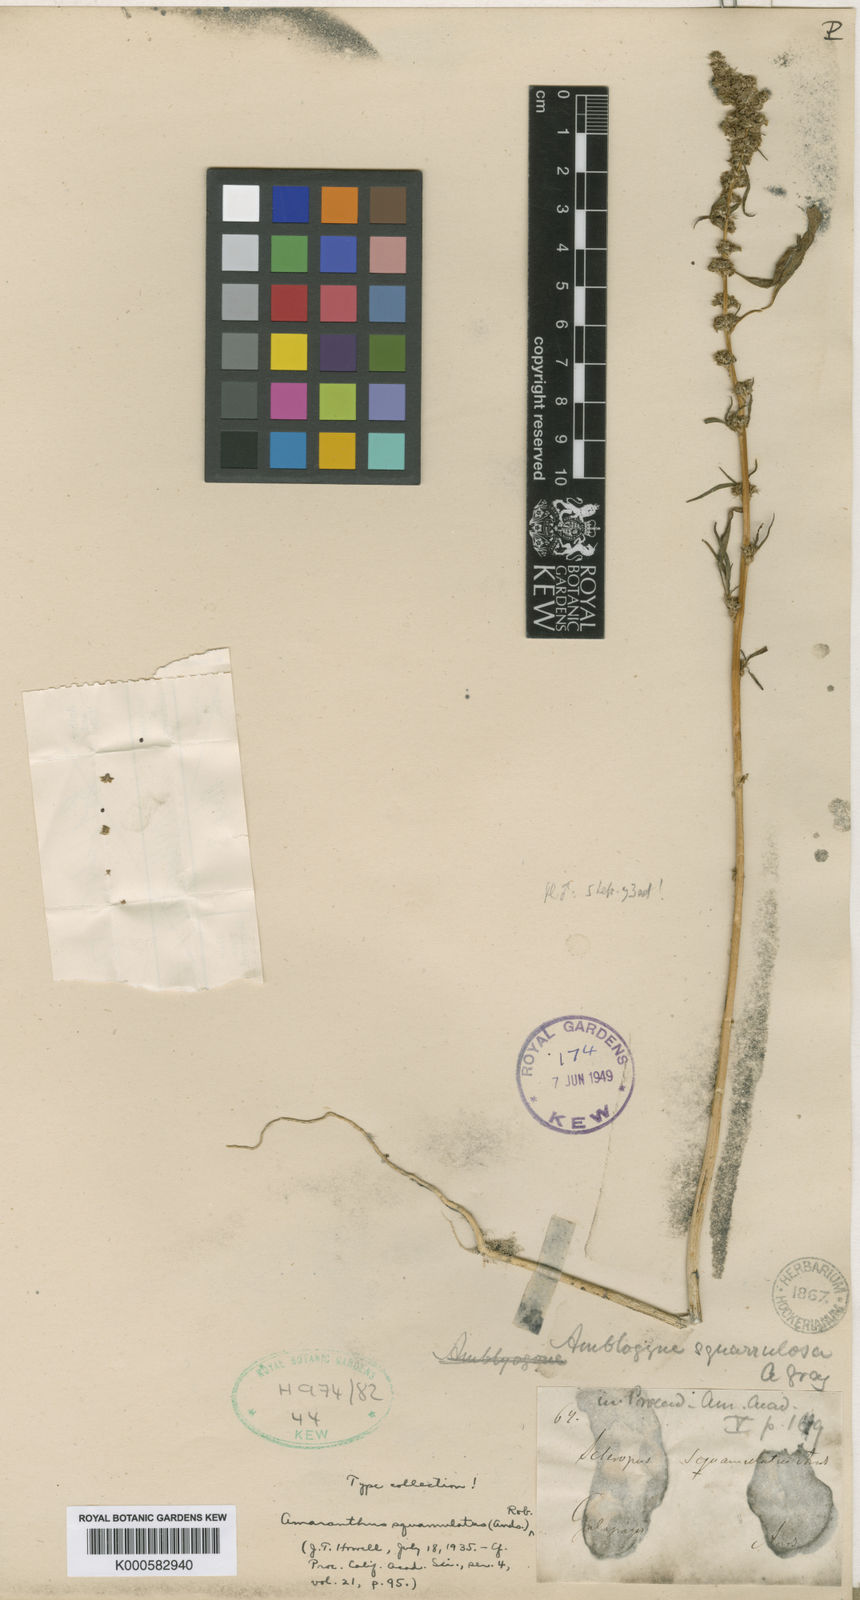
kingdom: Plantae
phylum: Tracheophyta
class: Magnoliopsida
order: Caryophyllales
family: Amaranthaceae
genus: Amaranthus
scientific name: Amaranthus squamulatus
